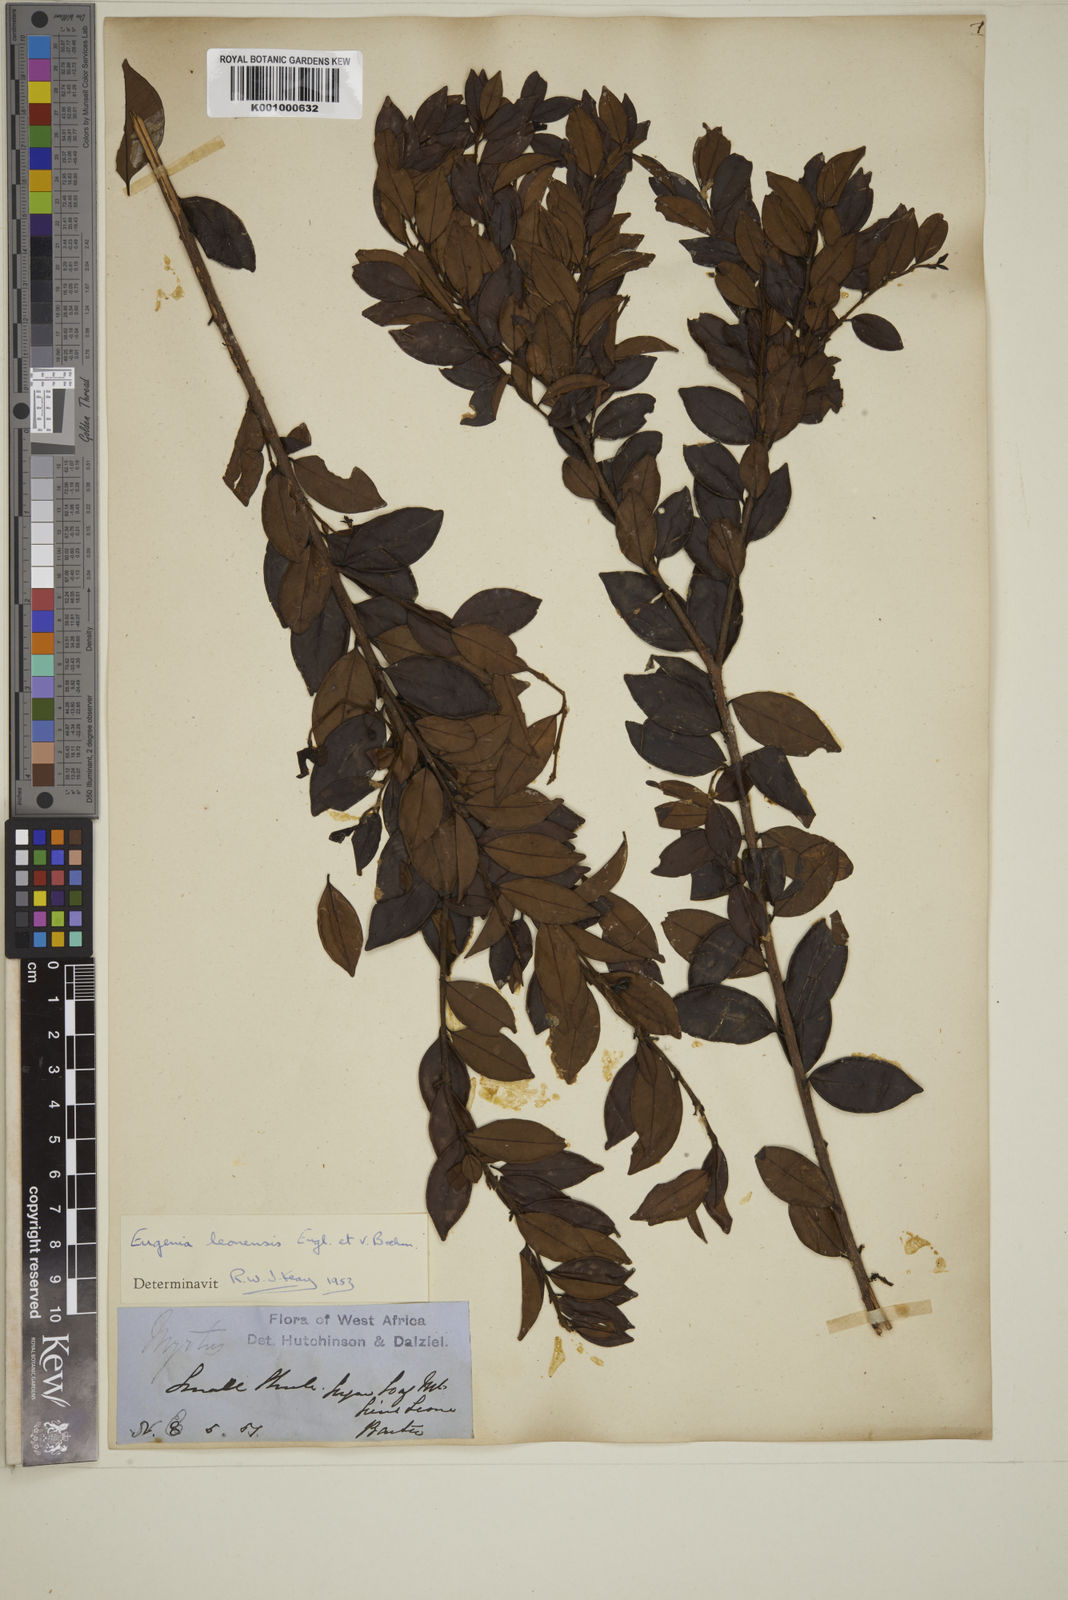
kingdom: Plantae
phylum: Tracheophyta
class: Magnoliopsida
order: Myrtales
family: Myrtaceae
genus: Eugenia
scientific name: Eugenia leonensis
